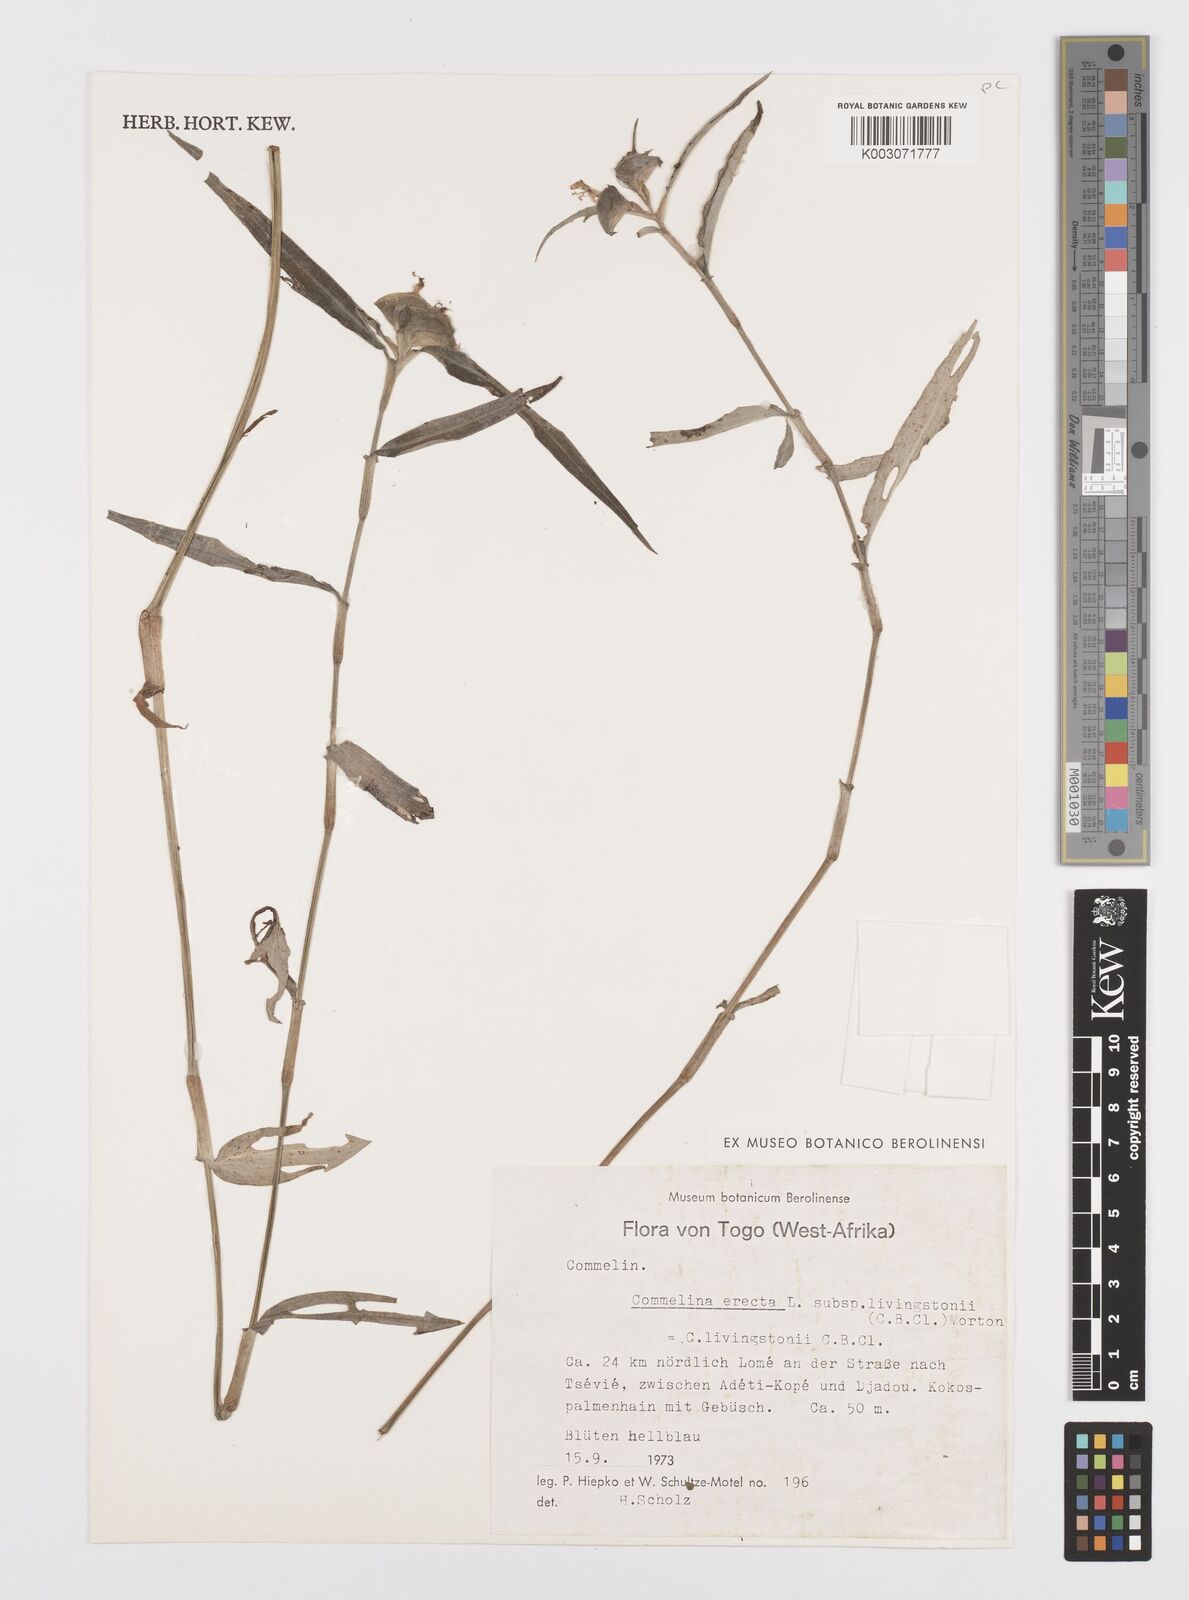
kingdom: Plantae
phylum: Tracheophyta
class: Liliopsida
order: Commelinales
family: Commelinaceae
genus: Commelina
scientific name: Commelina erecta
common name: Blousel blommetjie
